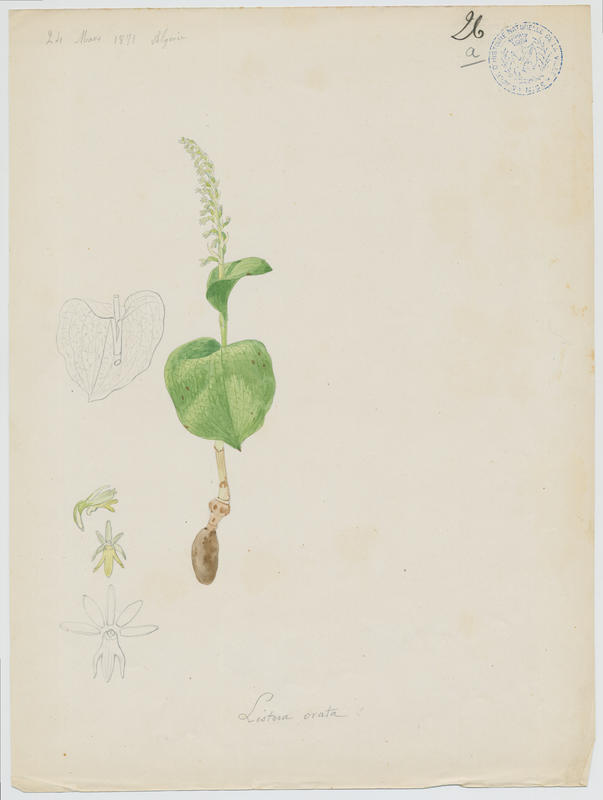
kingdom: Plantae
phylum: Tracheophyta
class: Liliopsida
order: Asparagales
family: Orchidaceae
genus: Neottia
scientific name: Neottia ovata
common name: Common twayblade
